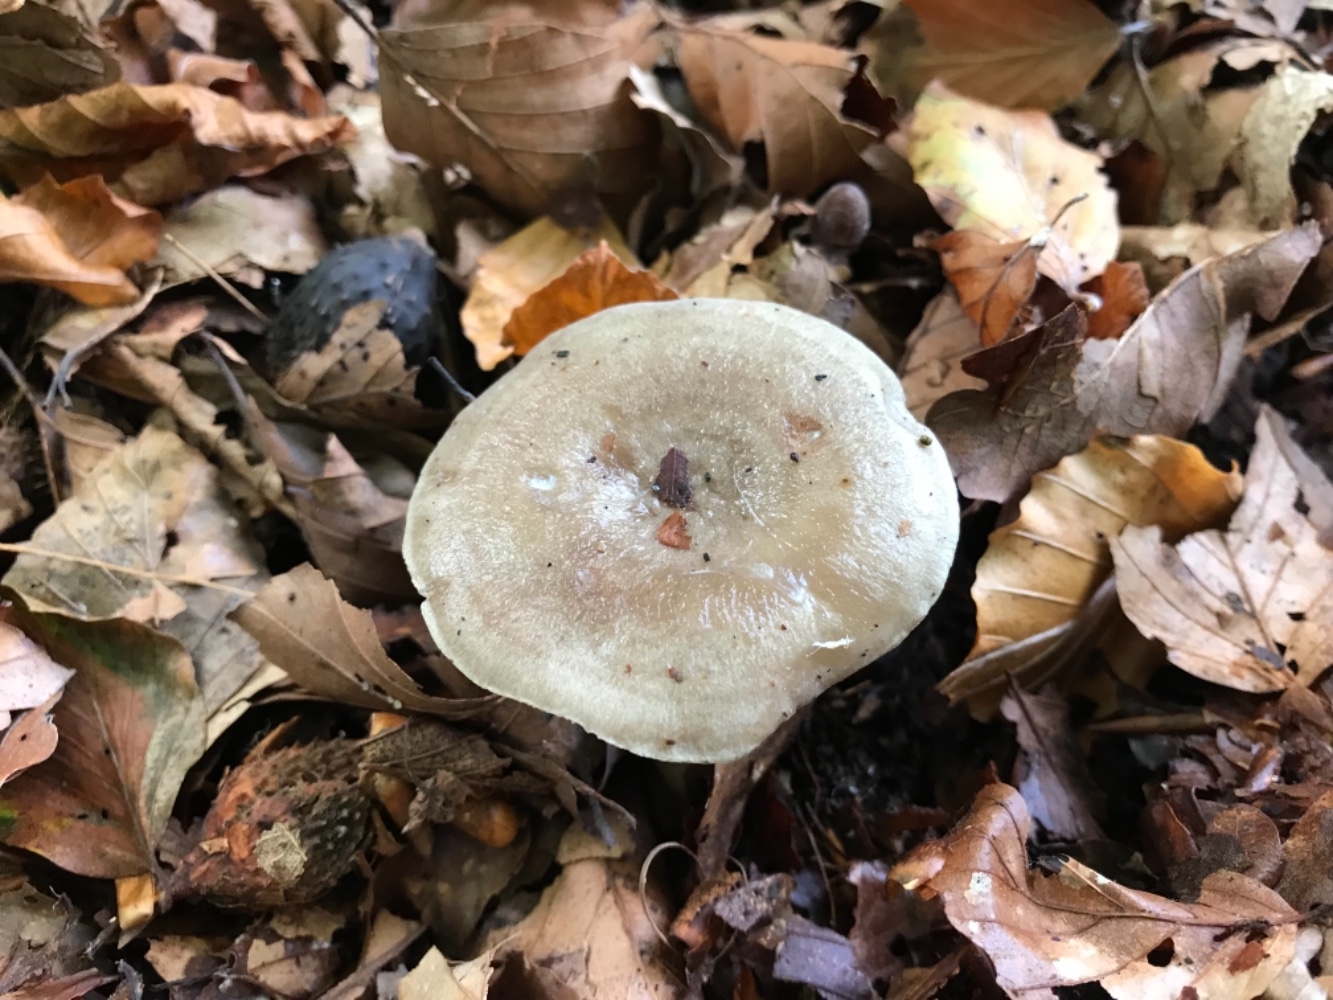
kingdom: Fungi
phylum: Basidiomycota
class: Agaricomycetes
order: Russulales
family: Russulaceae
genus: Lactarius
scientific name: Lactarius blennius
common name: dråbeplettet mælkehat
